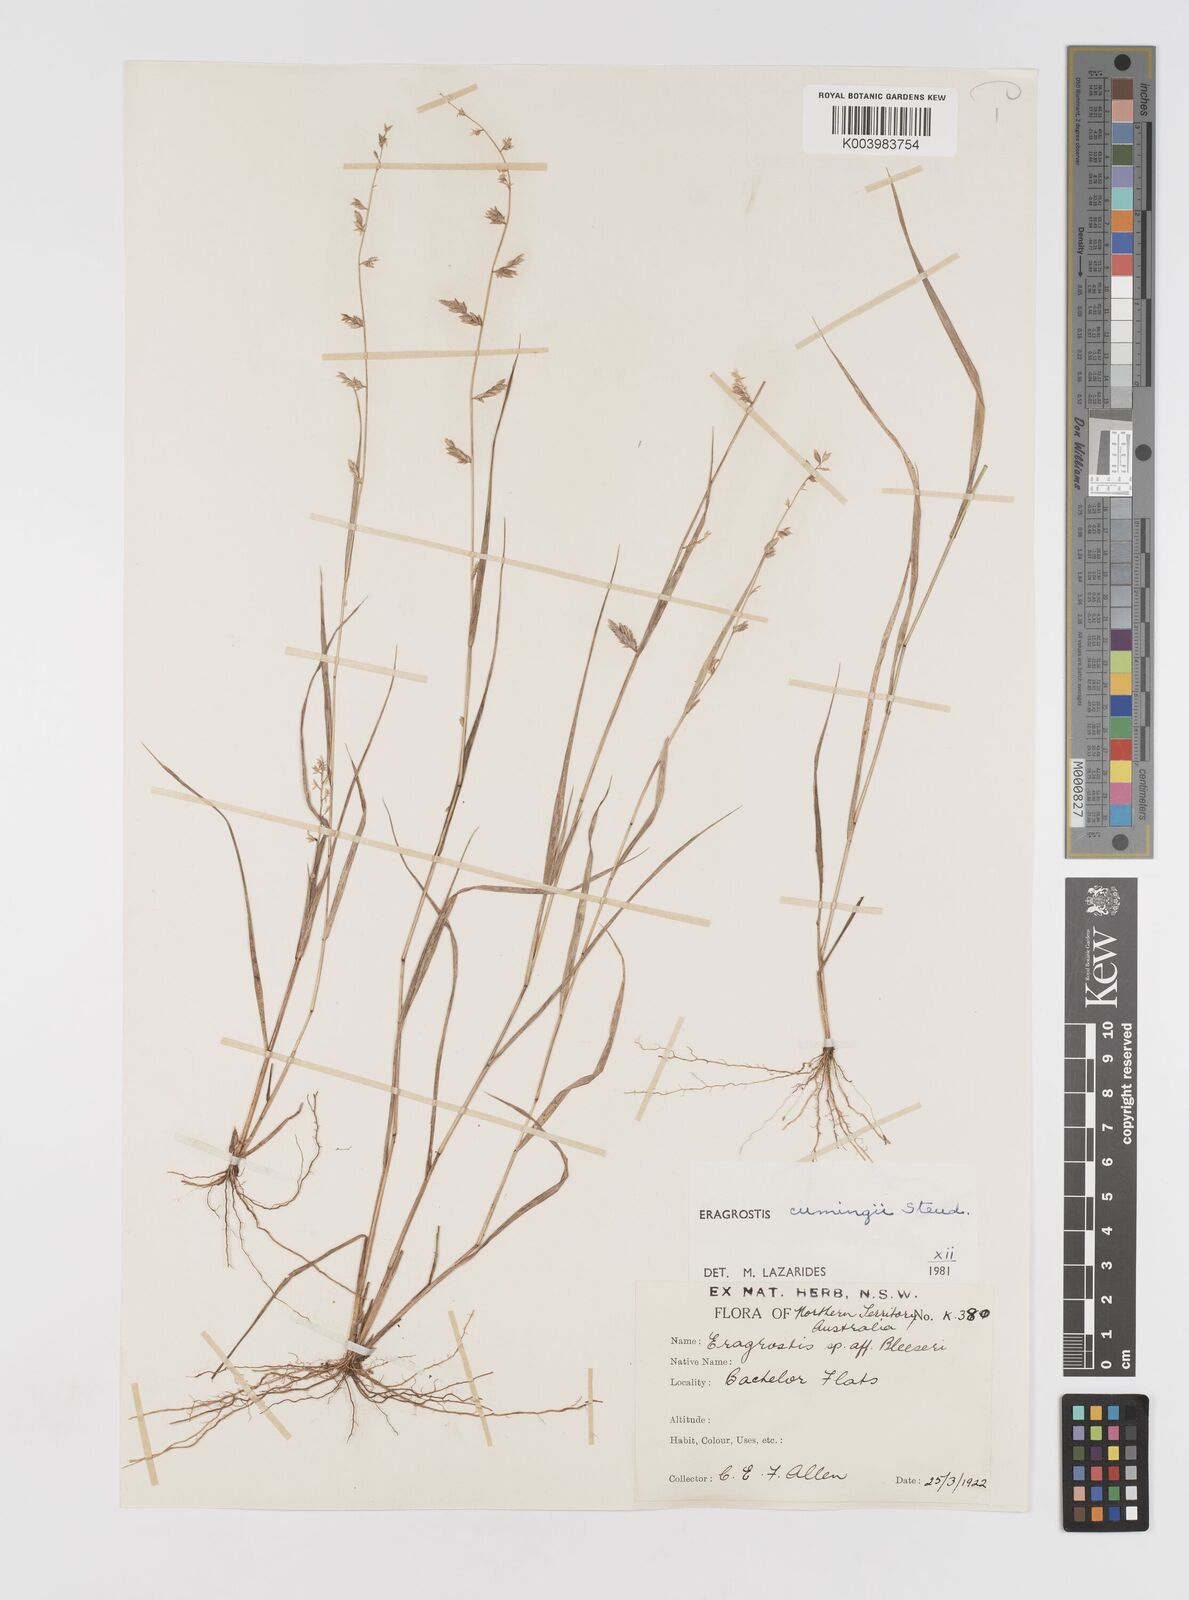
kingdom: Plantae
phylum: Tracheophyta
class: Liliopsida
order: Poales
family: Poaceae
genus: Eragrostis
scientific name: Eragrostis cumingii
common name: Cuming's lovegrass
